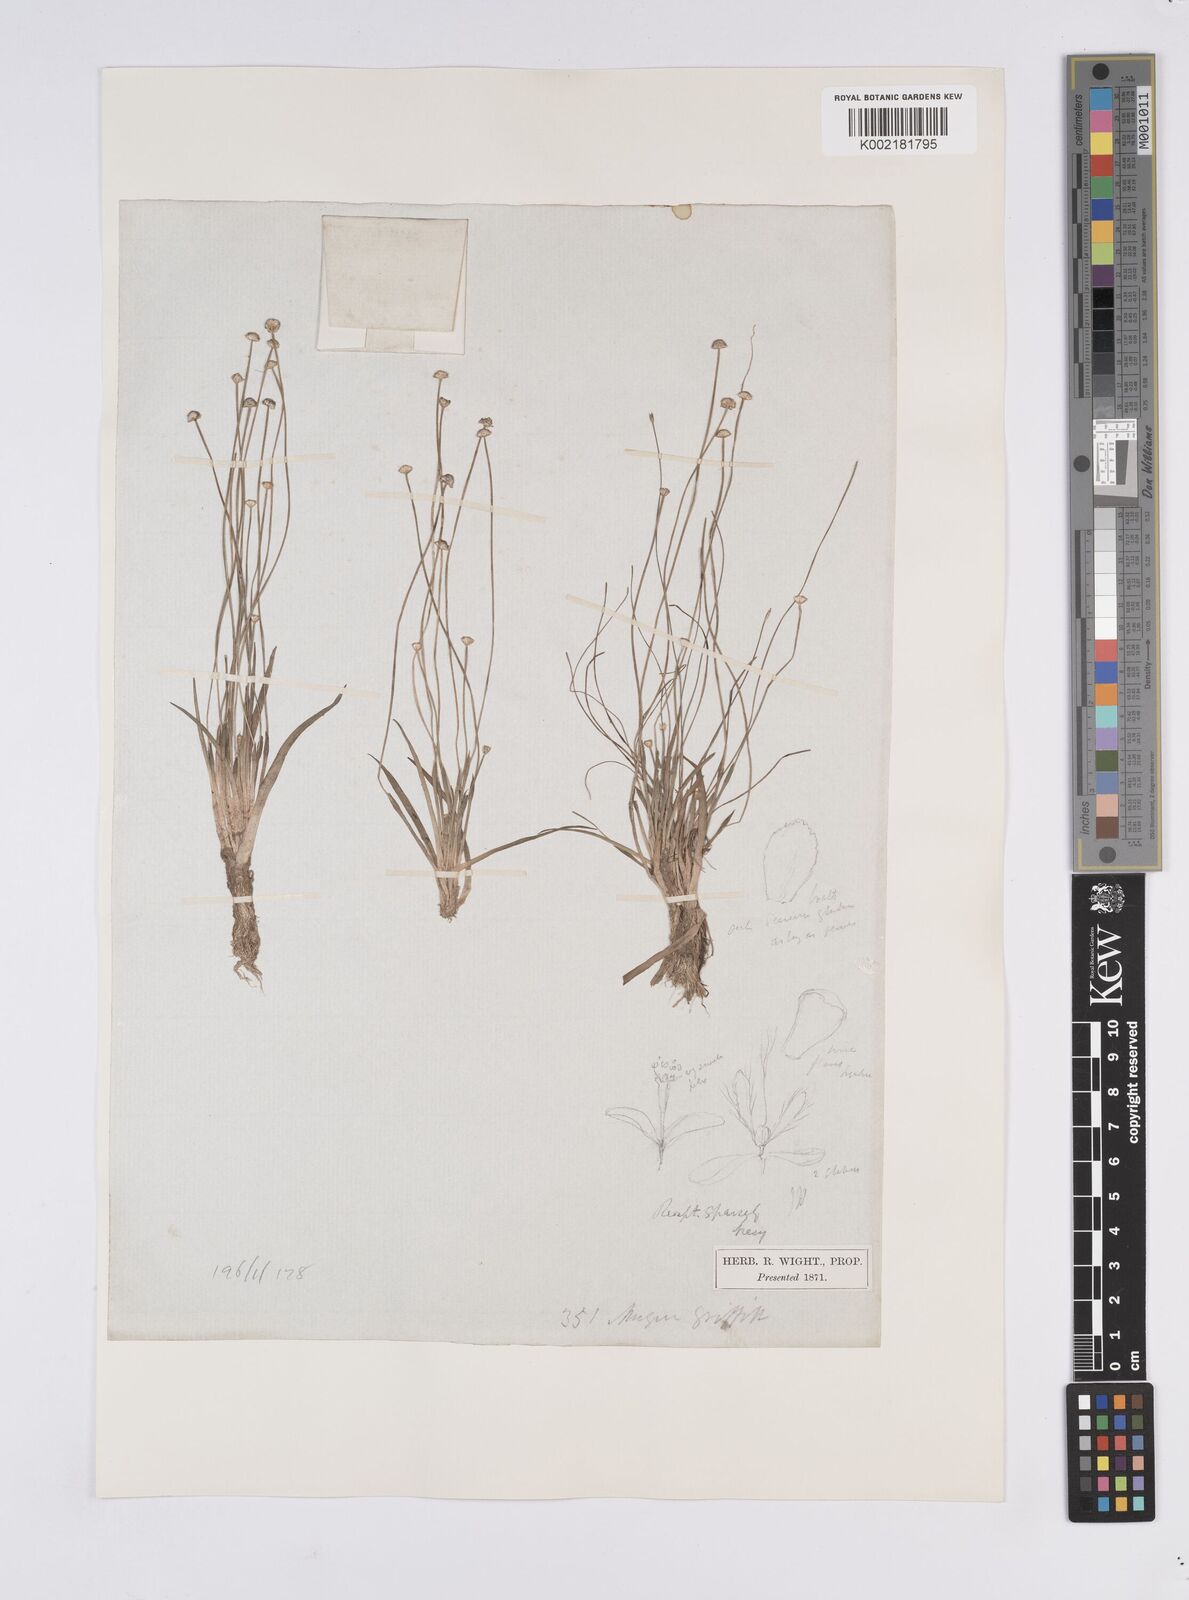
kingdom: Plantae
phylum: Tracheophyta
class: Liliopsida
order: Poales
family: Eriocaulaceae
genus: Eriocaulon
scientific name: Eriocaulon truncatum
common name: Short pipe-wort
